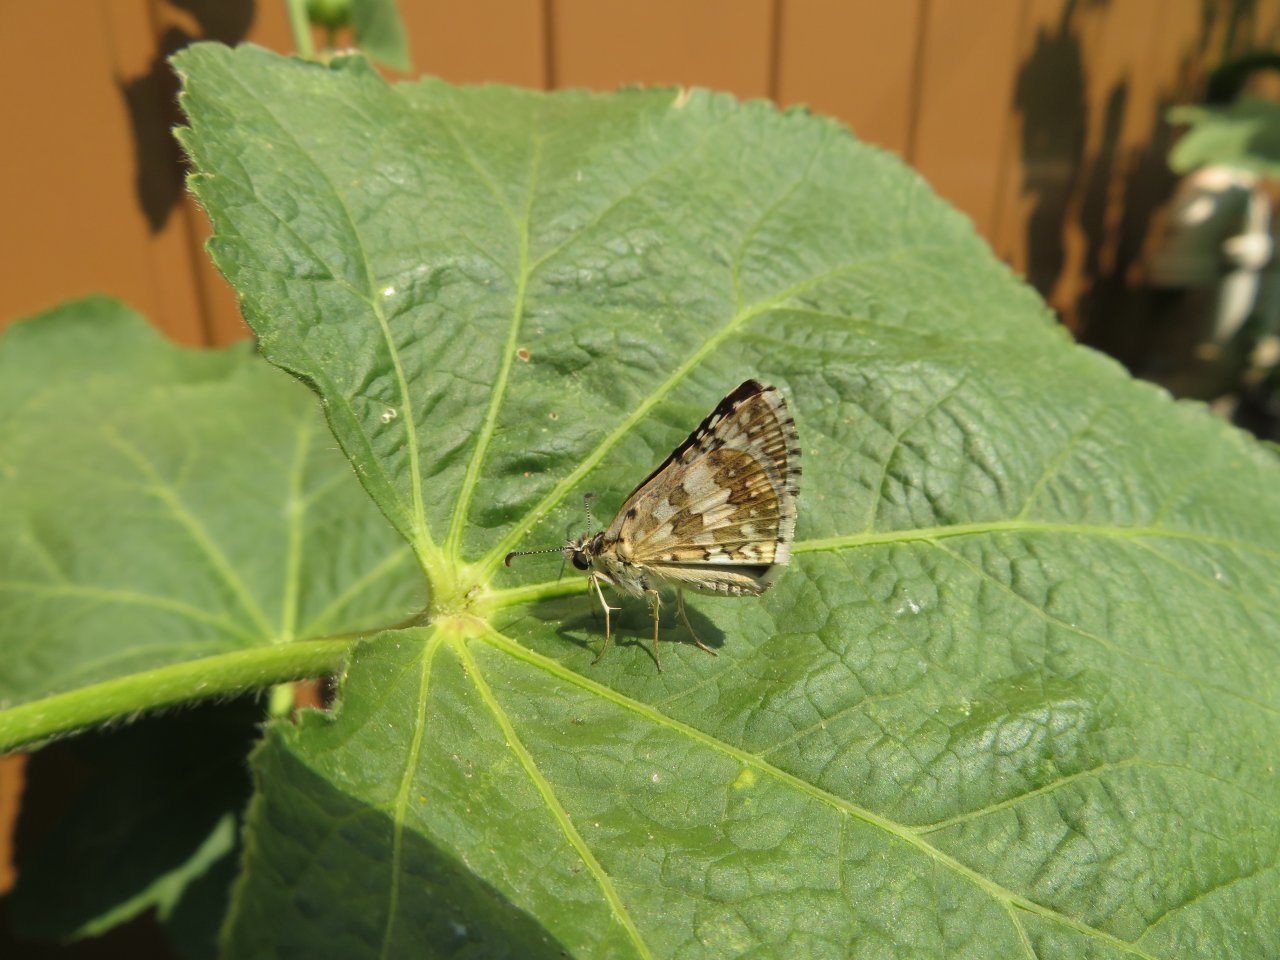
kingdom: Animalia
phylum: Arthropoda
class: Insecta
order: Lepidoptera
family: Hesperiidae
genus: Pyrgus
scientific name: Pyrgus communis
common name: Common Checkered-Skipper
